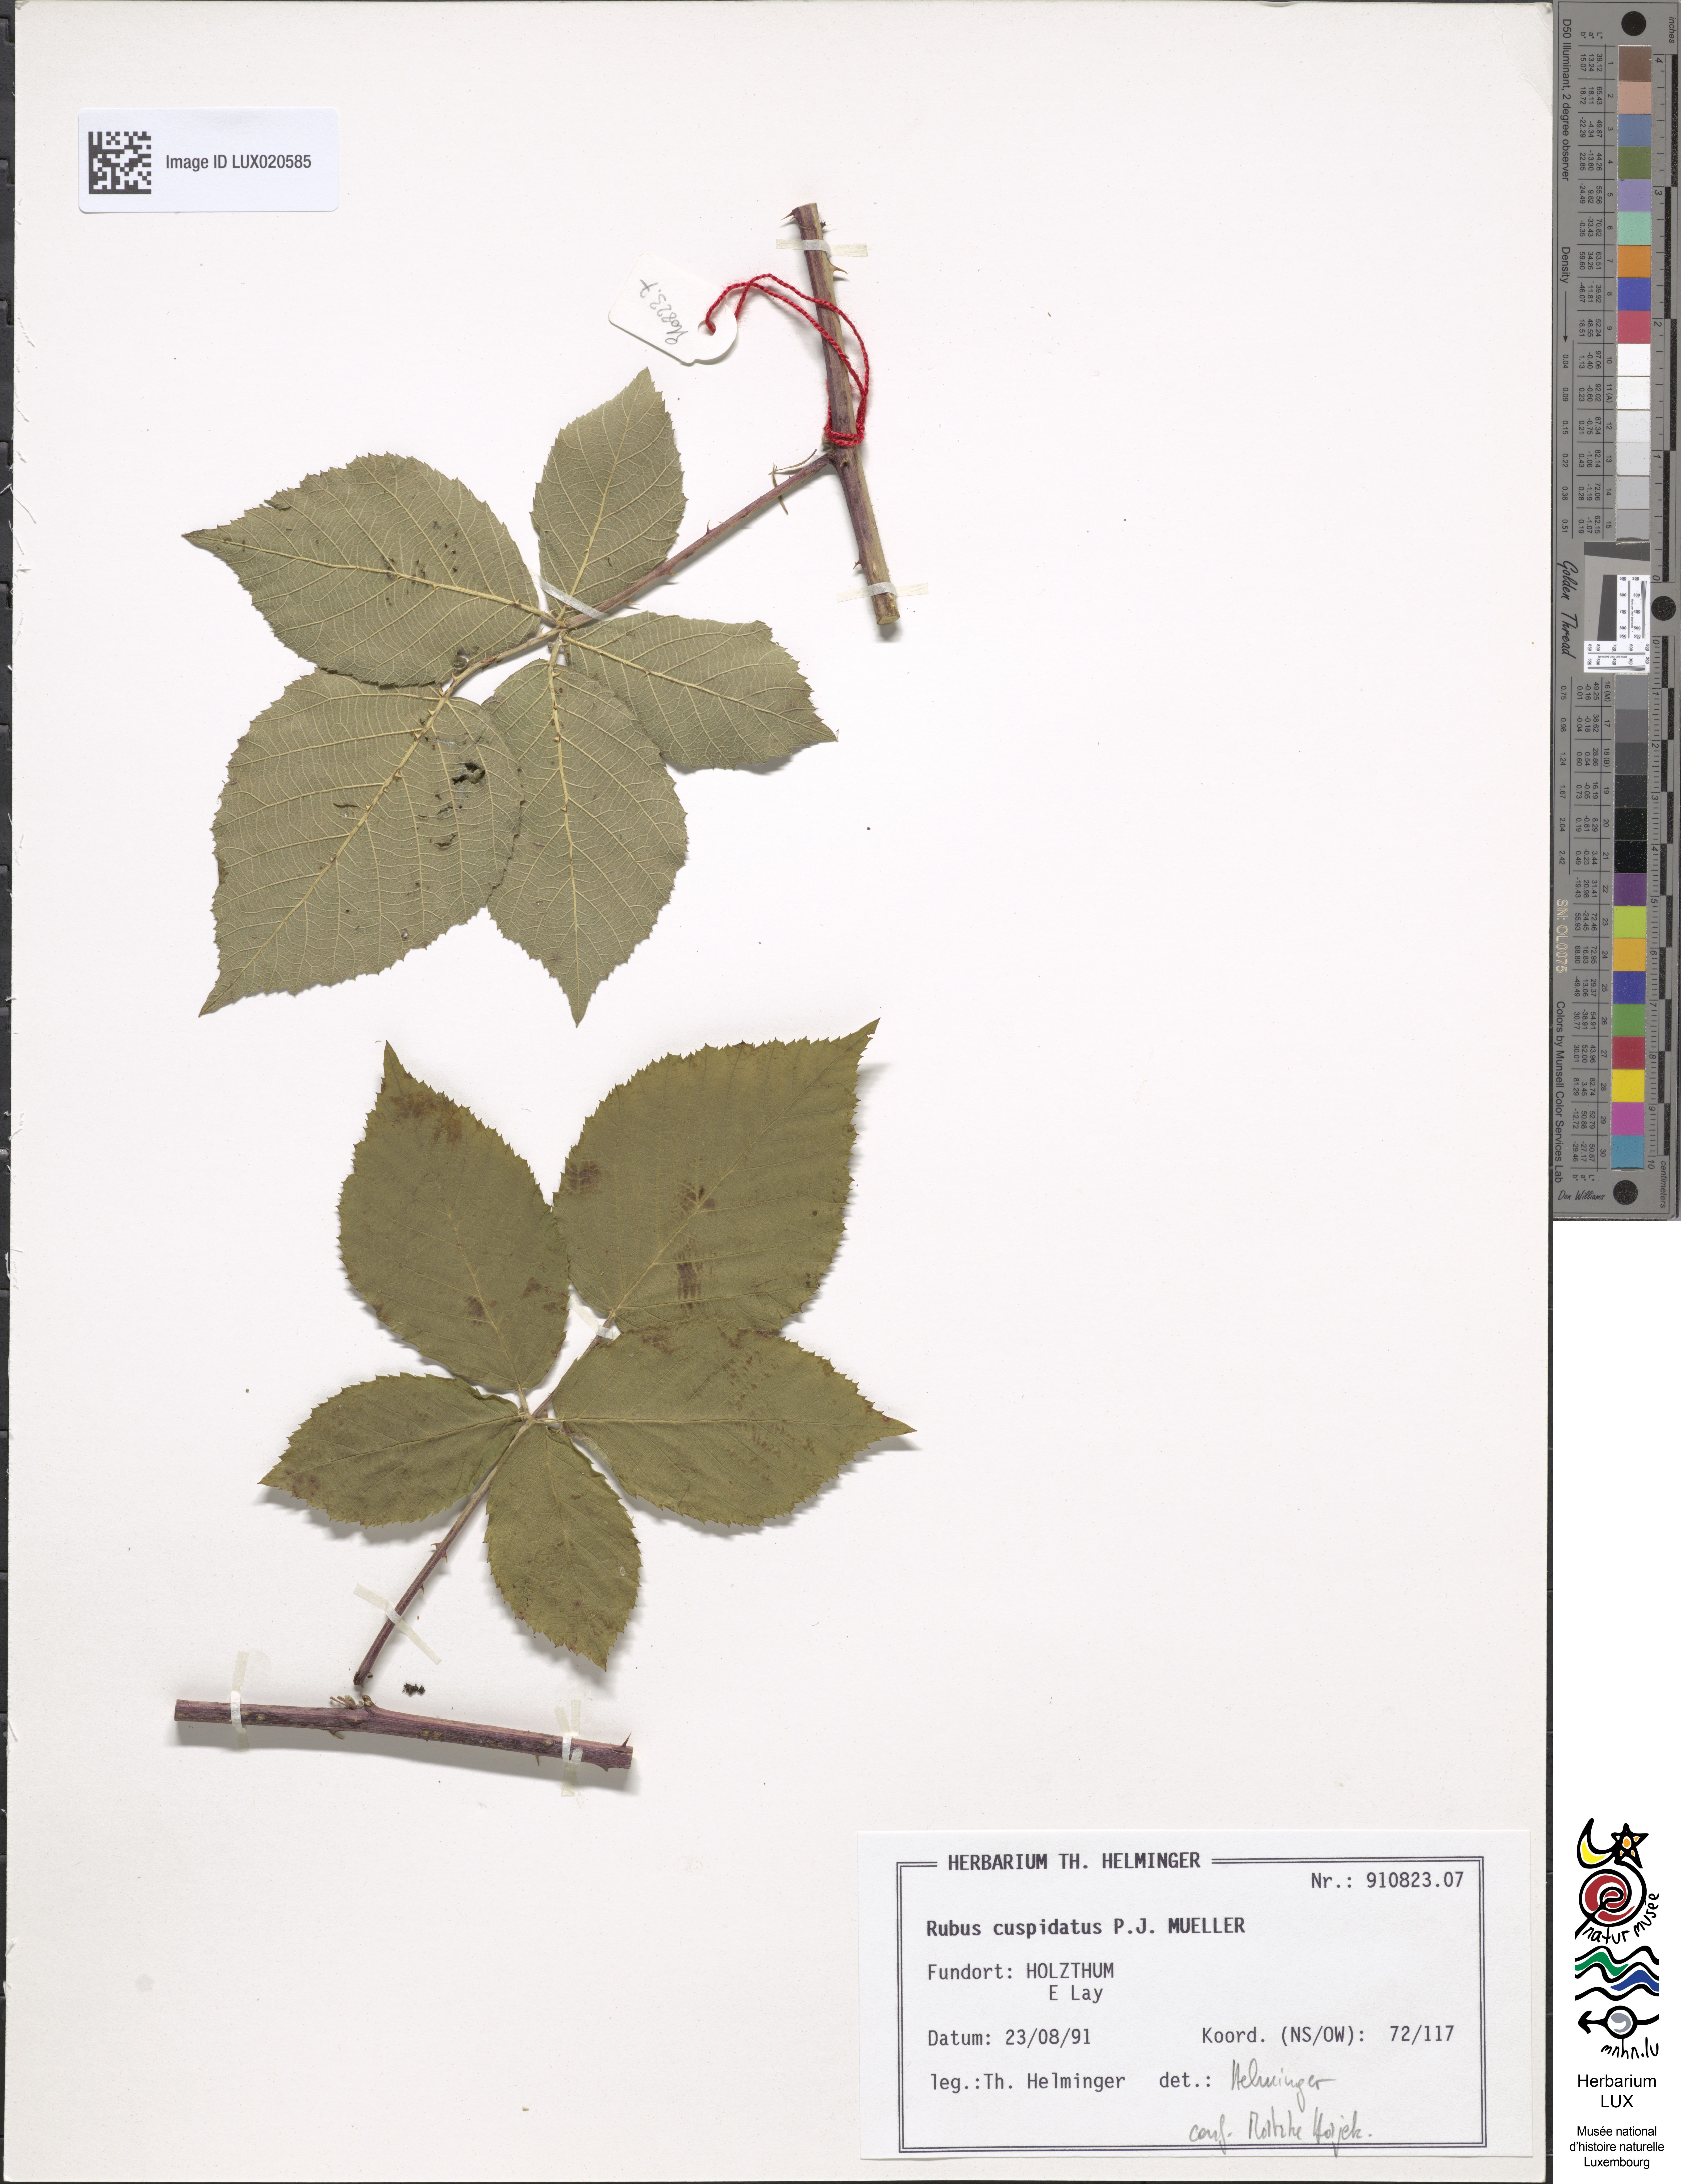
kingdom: Plantae
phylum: Tracheophyta
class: Magnoliopsida
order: Rosales
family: Rosaceae
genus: Rubus
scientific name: Rubus cuspidatus
